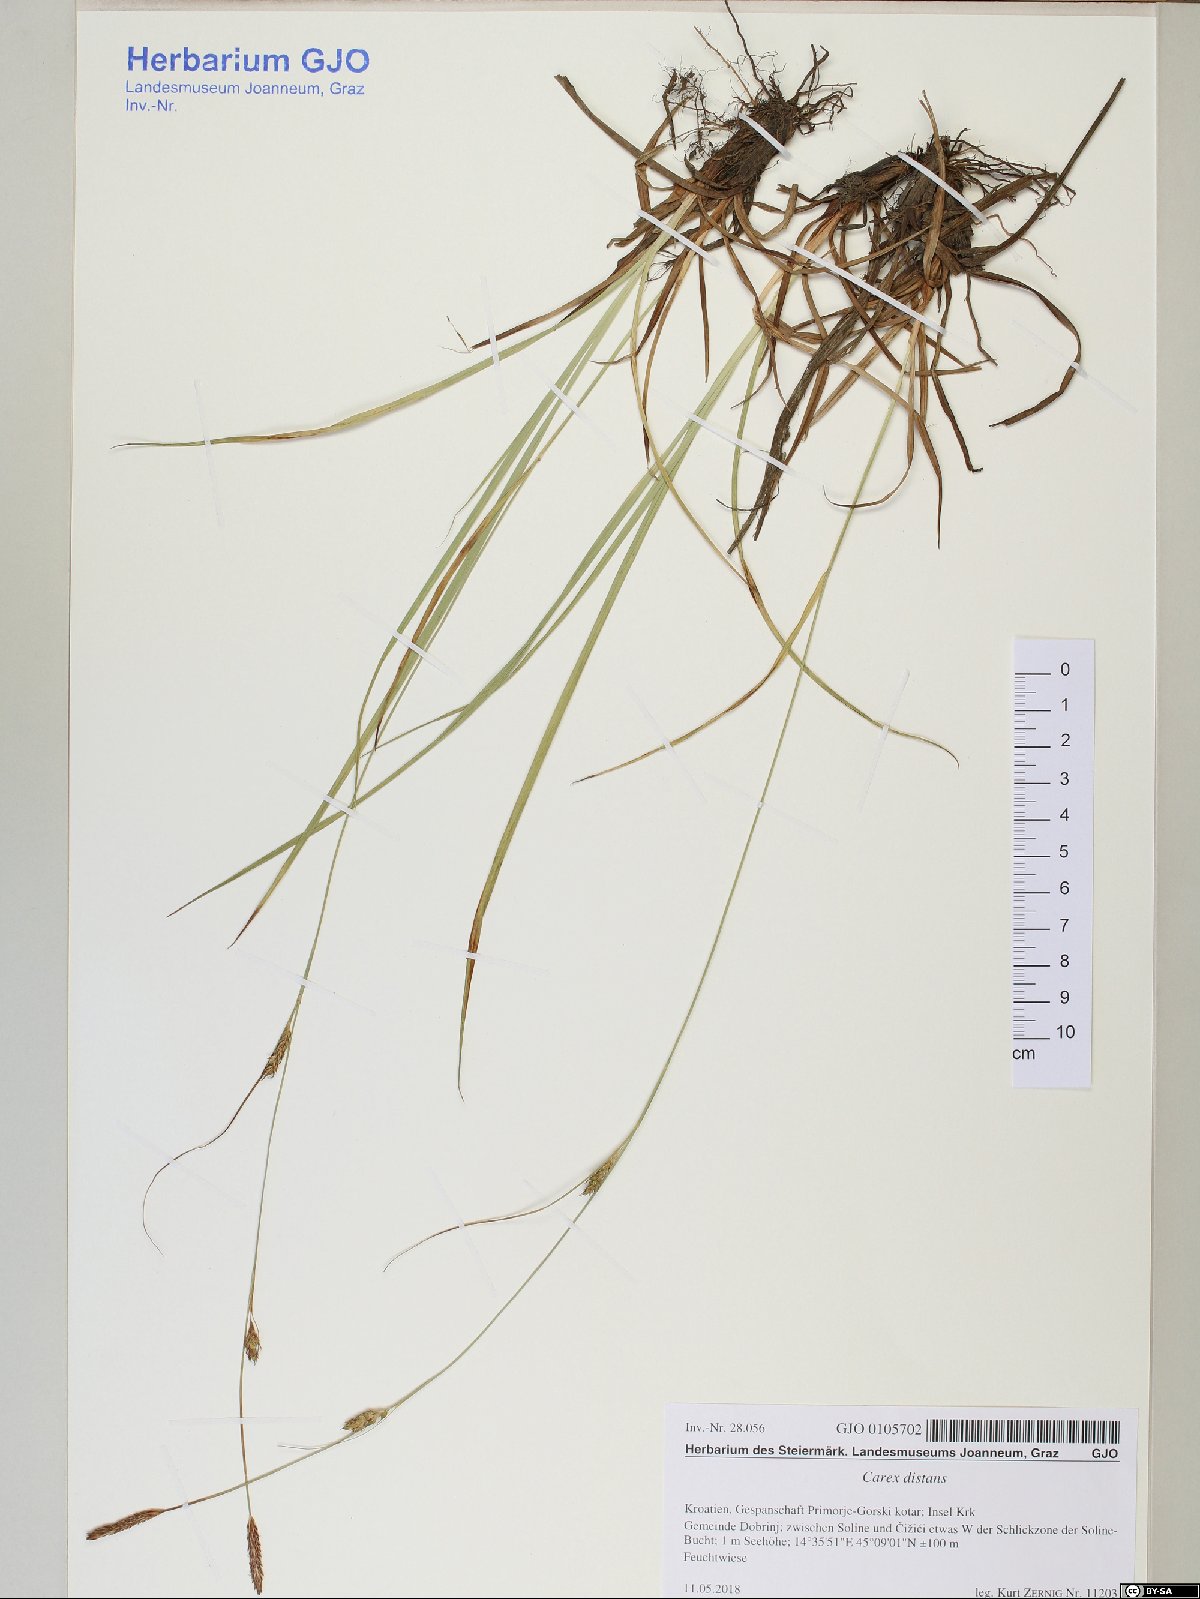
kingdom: Plantae
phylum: Tracheophyta
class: Liliopsida
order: Poales
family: Cyperaceae
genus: Carex
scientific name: Carex distans
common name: Distant sedge
